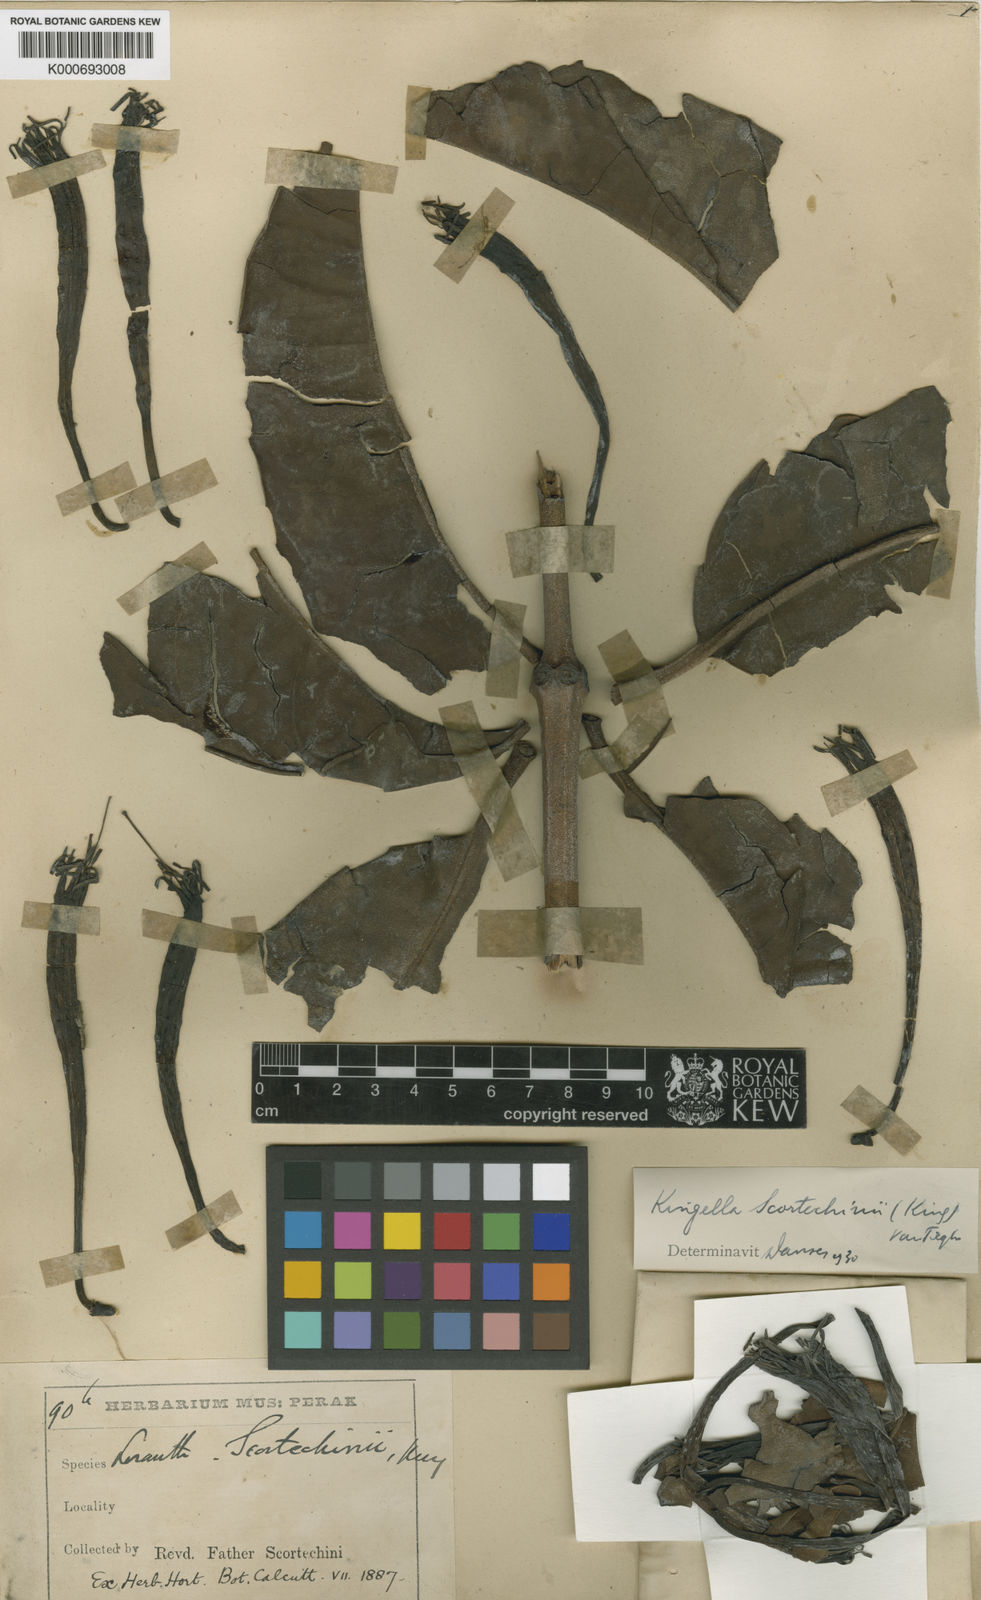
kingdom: Plantae
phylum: Tracheophyta
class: Magnoliopsida
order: Santalales
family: Loranthaceae
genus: Trithecanthera
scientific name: Trithecanthera scortechinii
